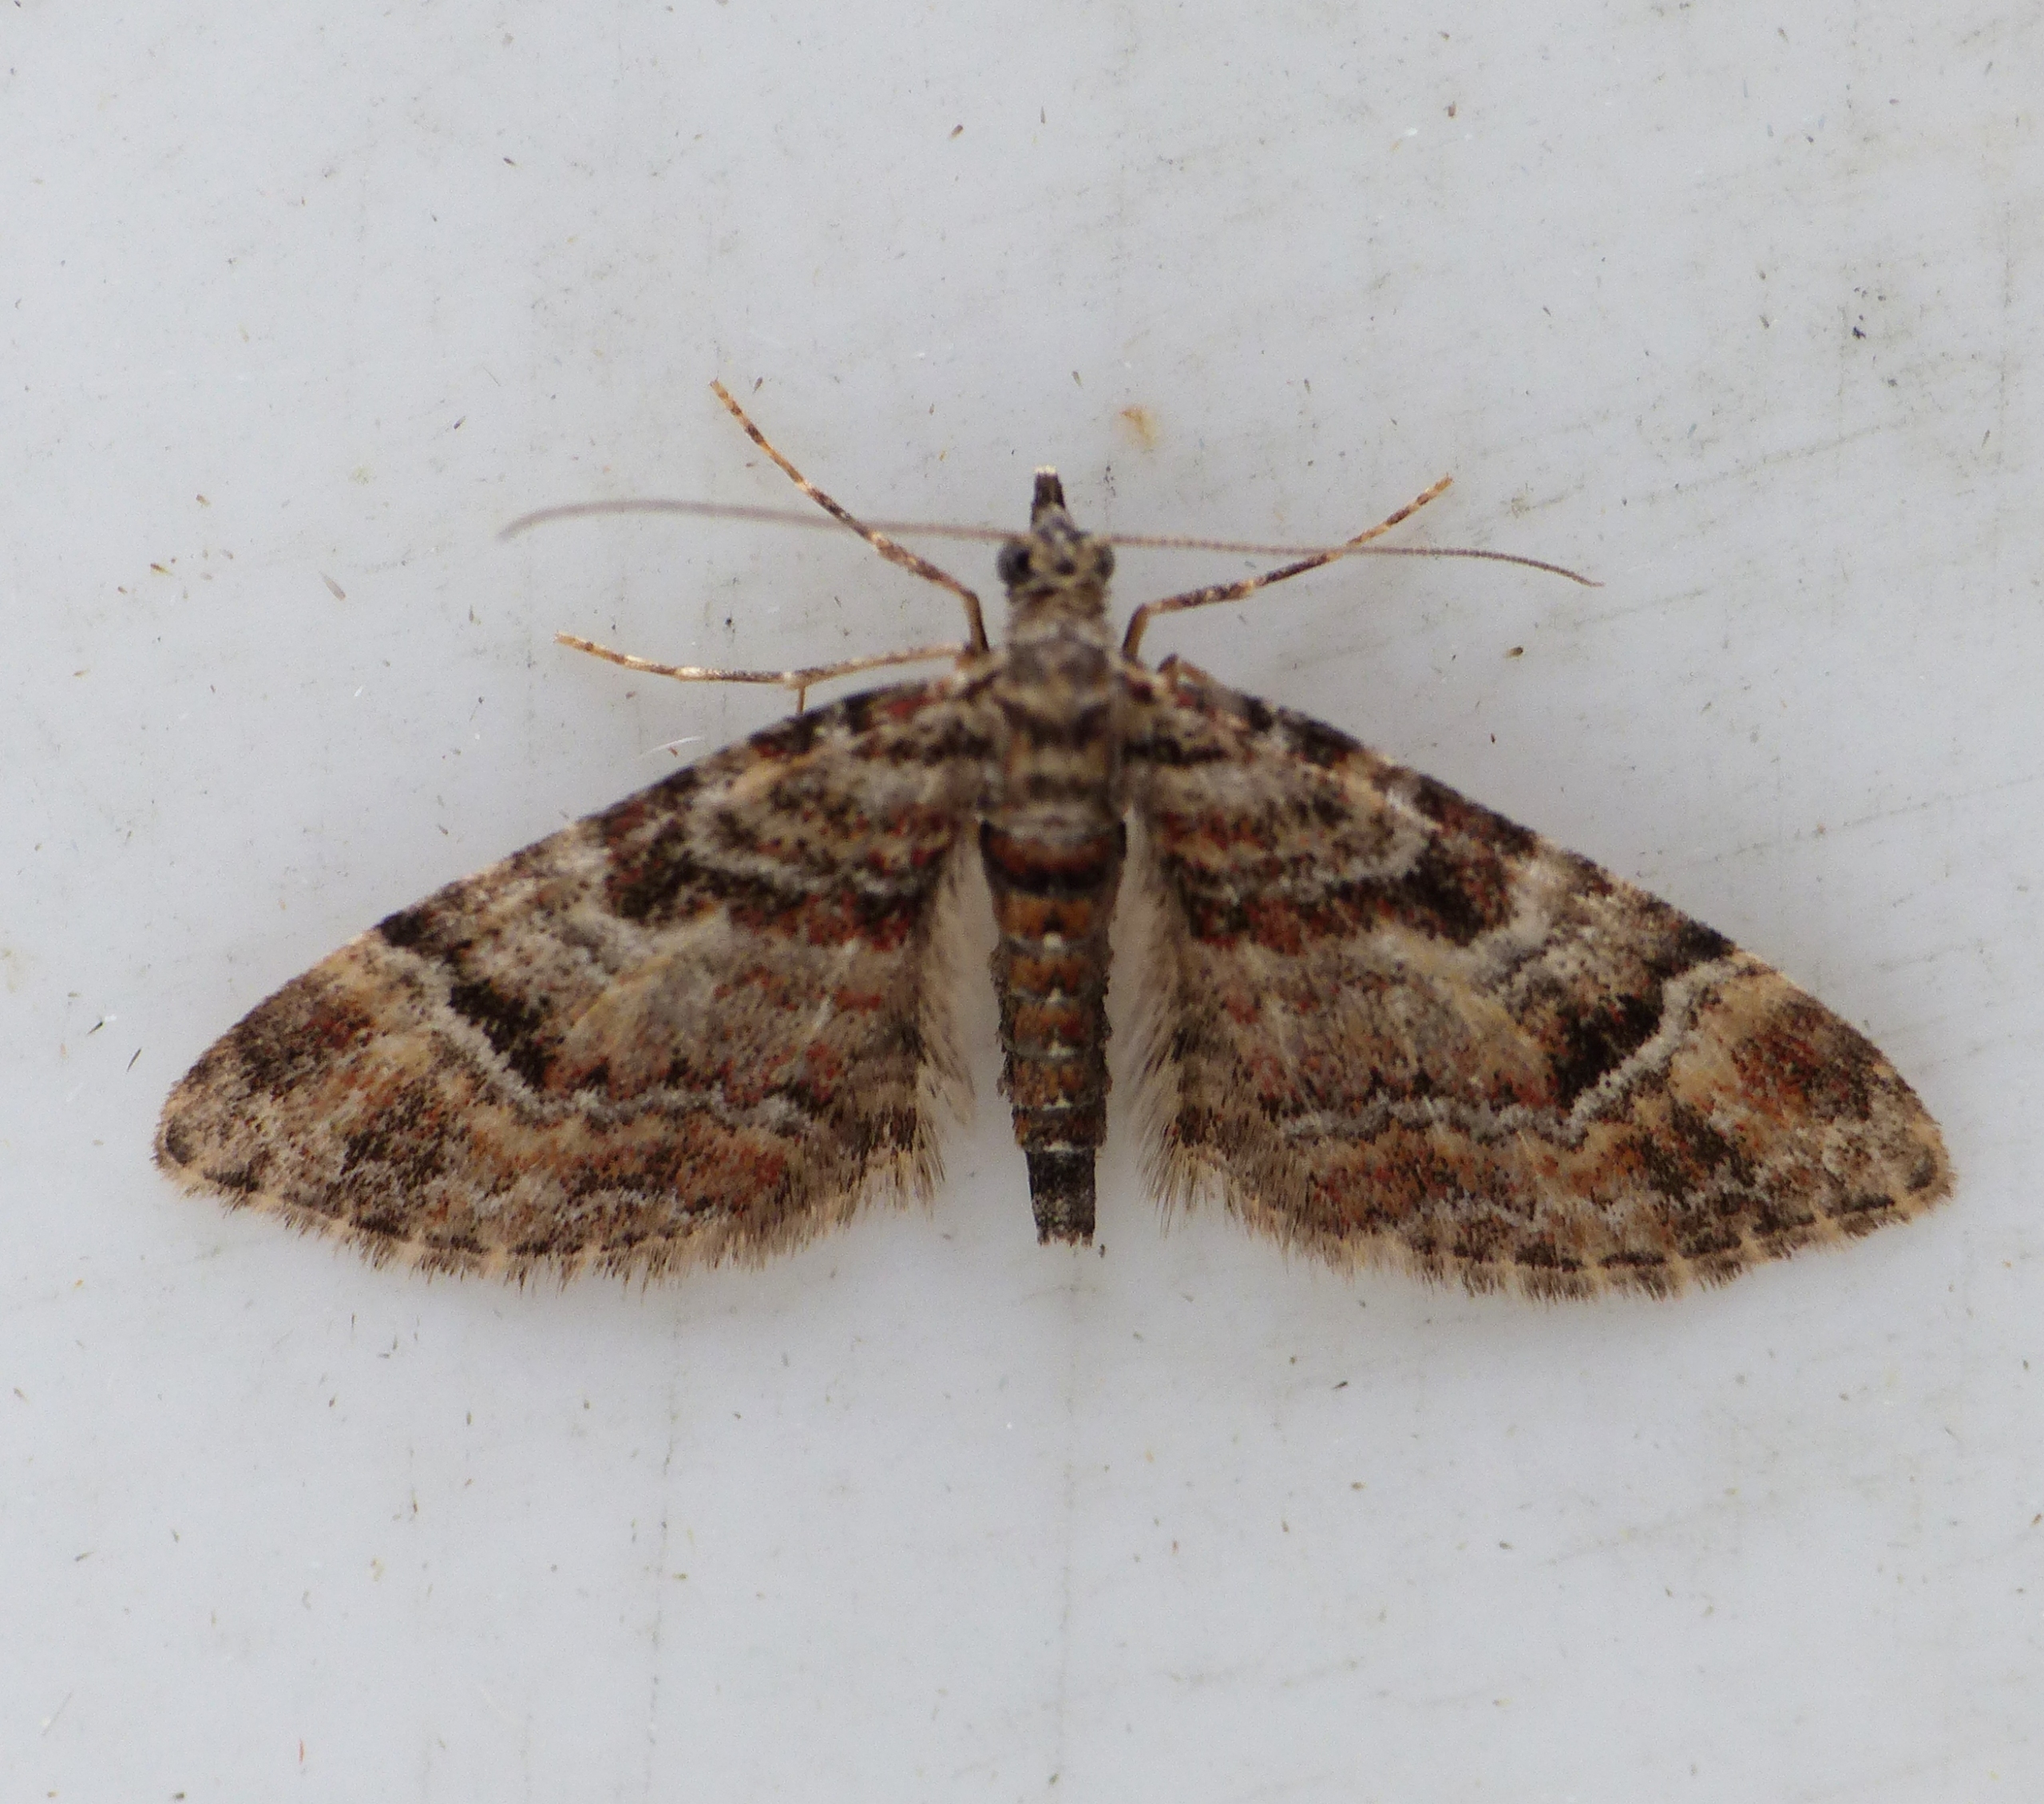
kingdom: Animalia
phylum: Arthropoda
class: Insecta
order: Lepidoptera
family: Geometridae
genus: Gymnoscelis
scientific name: Gymnoscelis rufifasciata
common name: Rødbåndet dværgmåler
